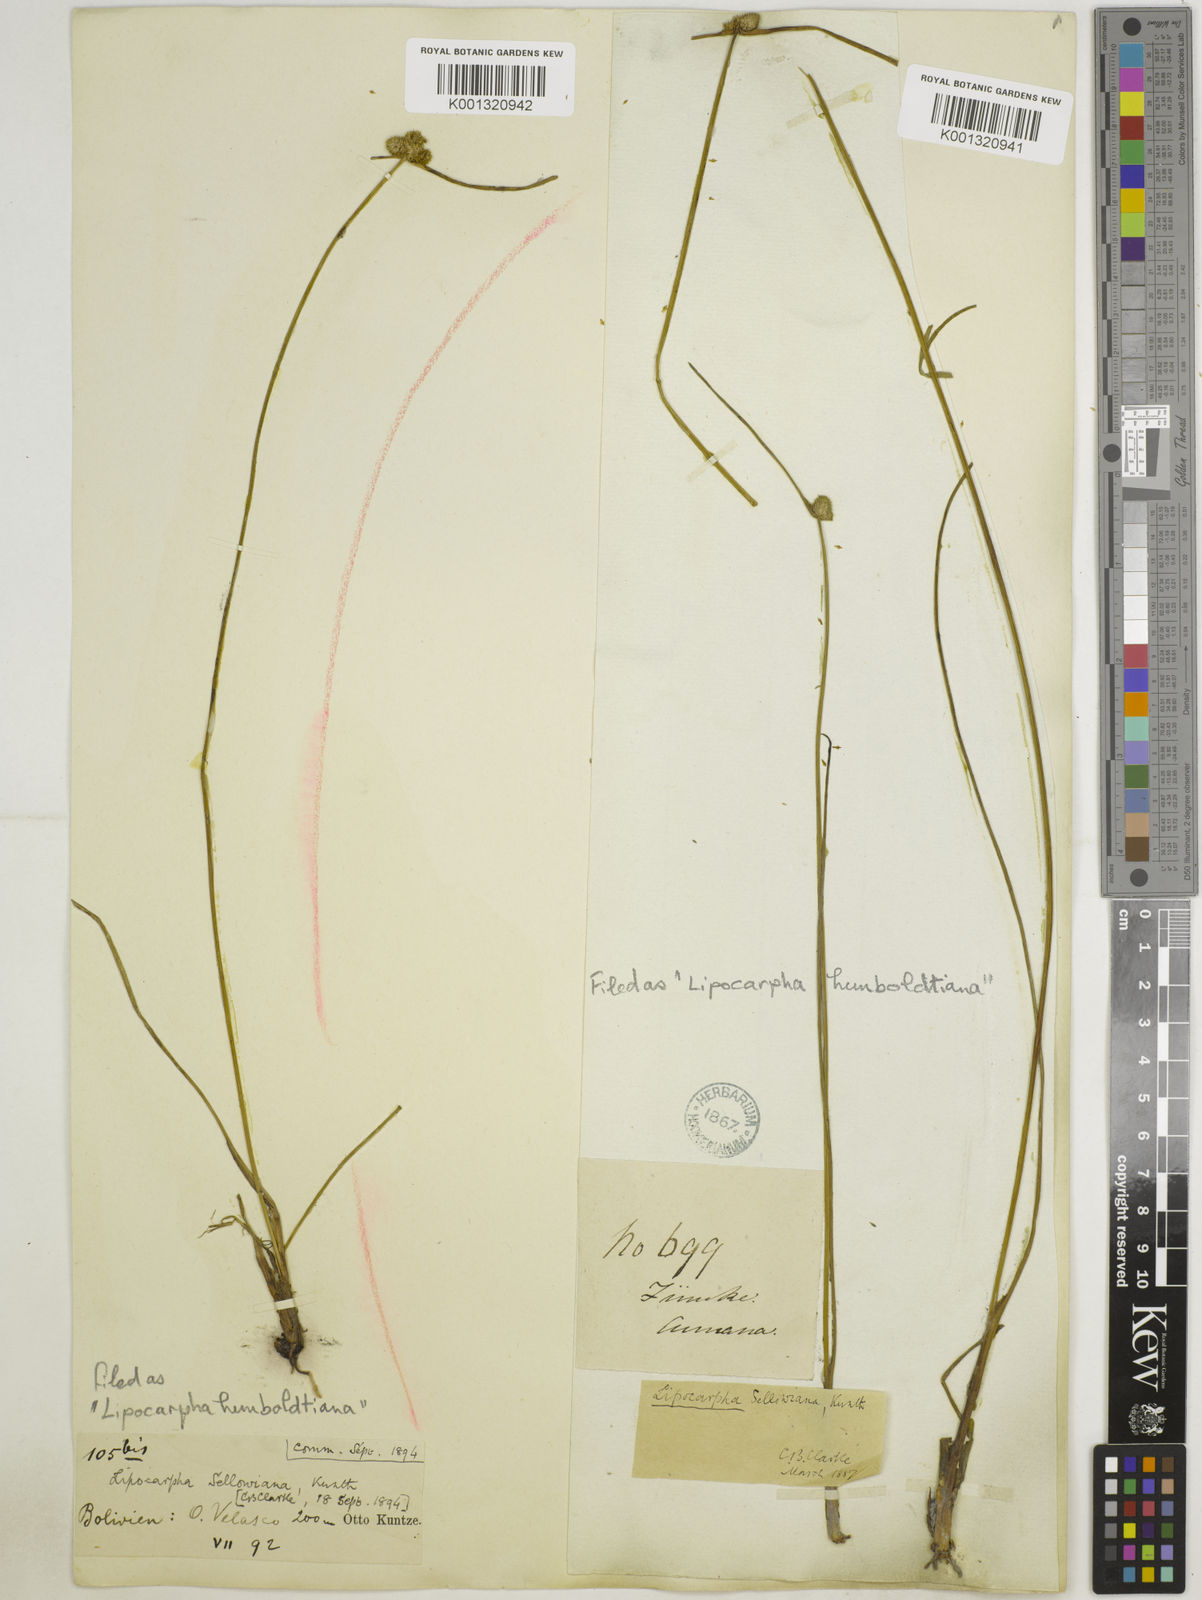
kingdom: Plantae
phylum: Tracheophyta
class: Liliopsida
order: Poales
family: Cyperaceae
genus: Cyperus
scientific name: Cyperus lanceolatus
